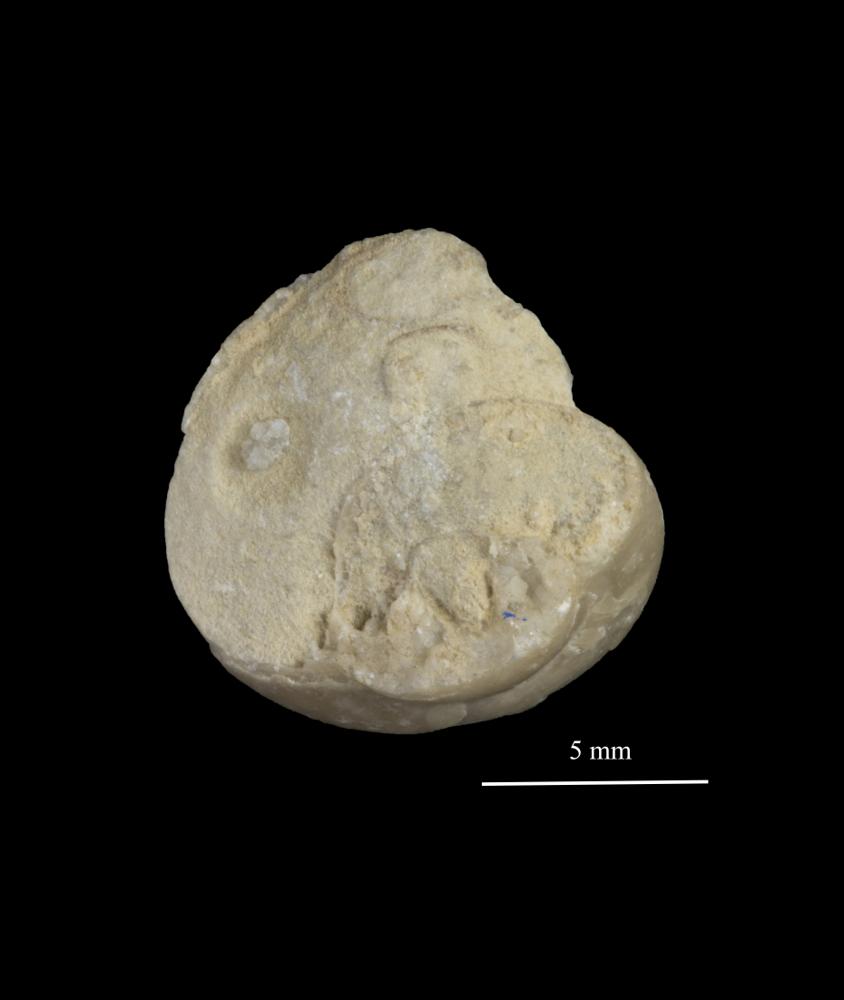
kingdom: Animalia
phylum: Mollusca
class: Gastropoda
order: Pleurotomariida
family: Planitrochidae
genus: Trochomphalus
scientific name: Trochomphalus Pycnomphalus borkholmiensis
